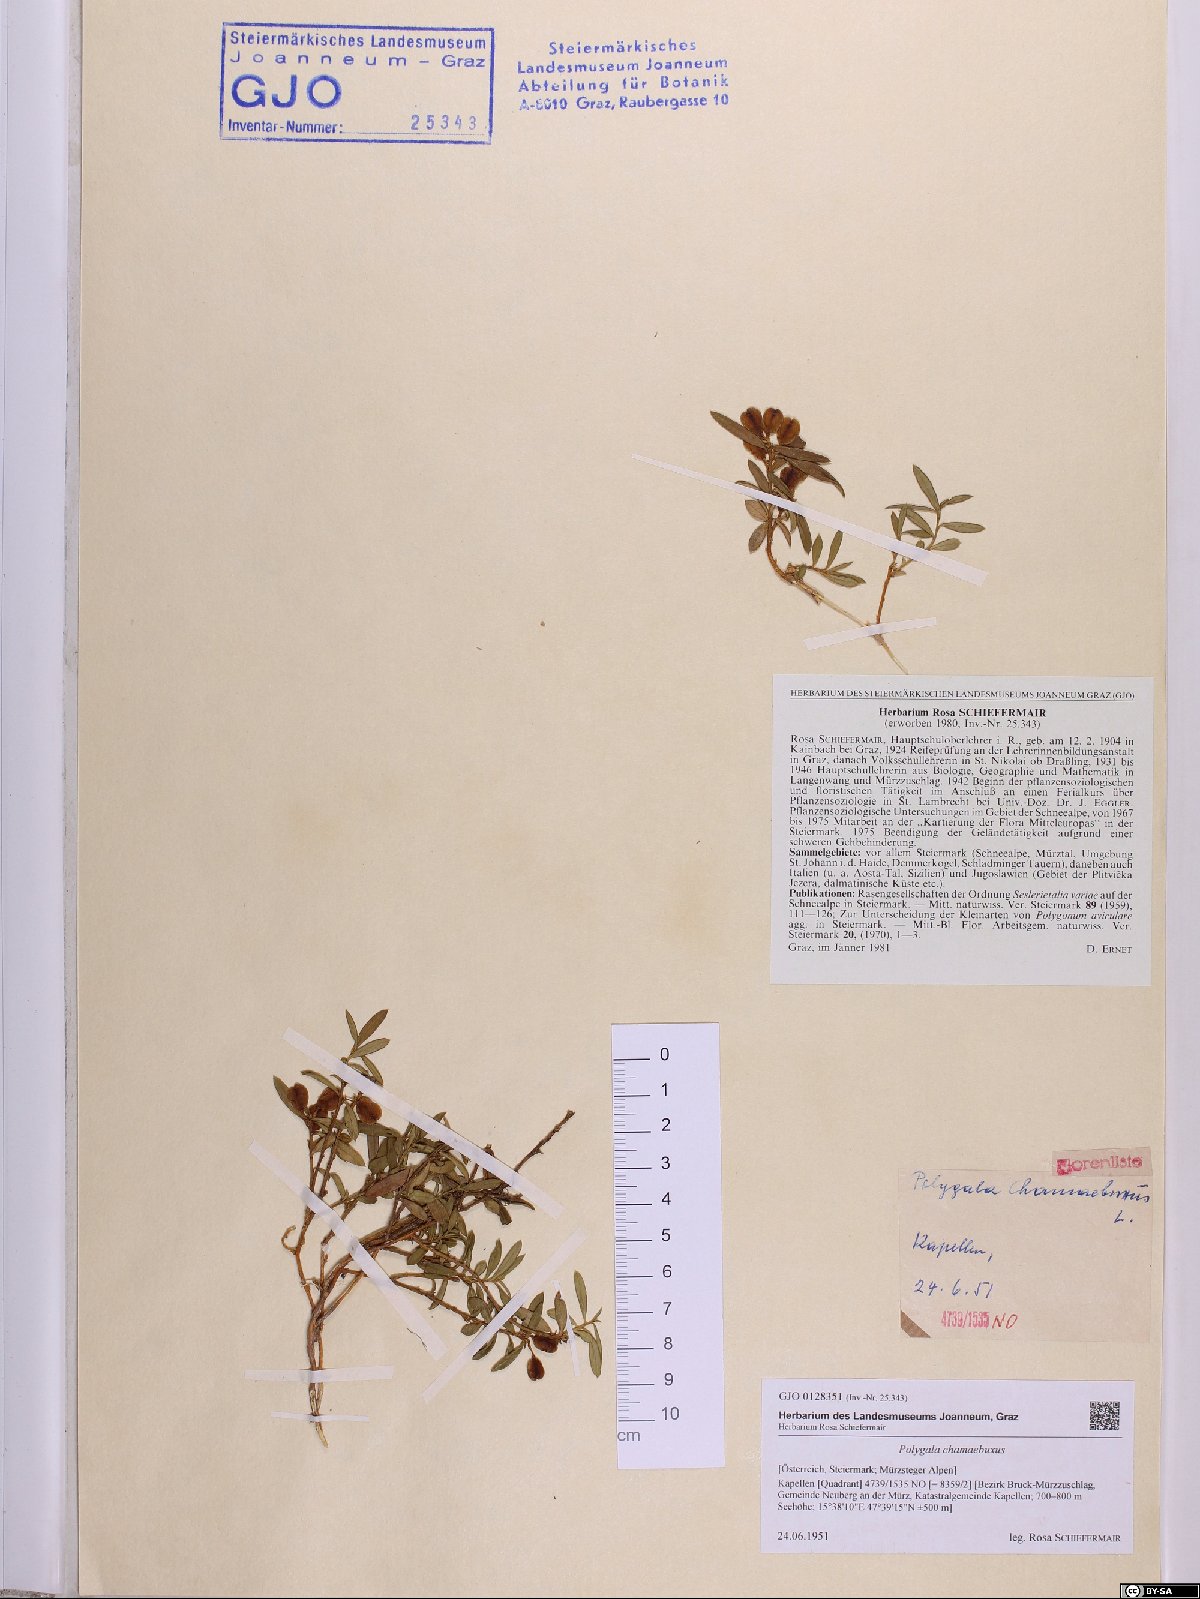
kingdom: Plantae
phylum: Tracheophyta
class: Magnoliopsida
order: Fabales
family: Polygalaceae
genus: Polygaloides
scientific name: Polygaloides chamaebuxus
